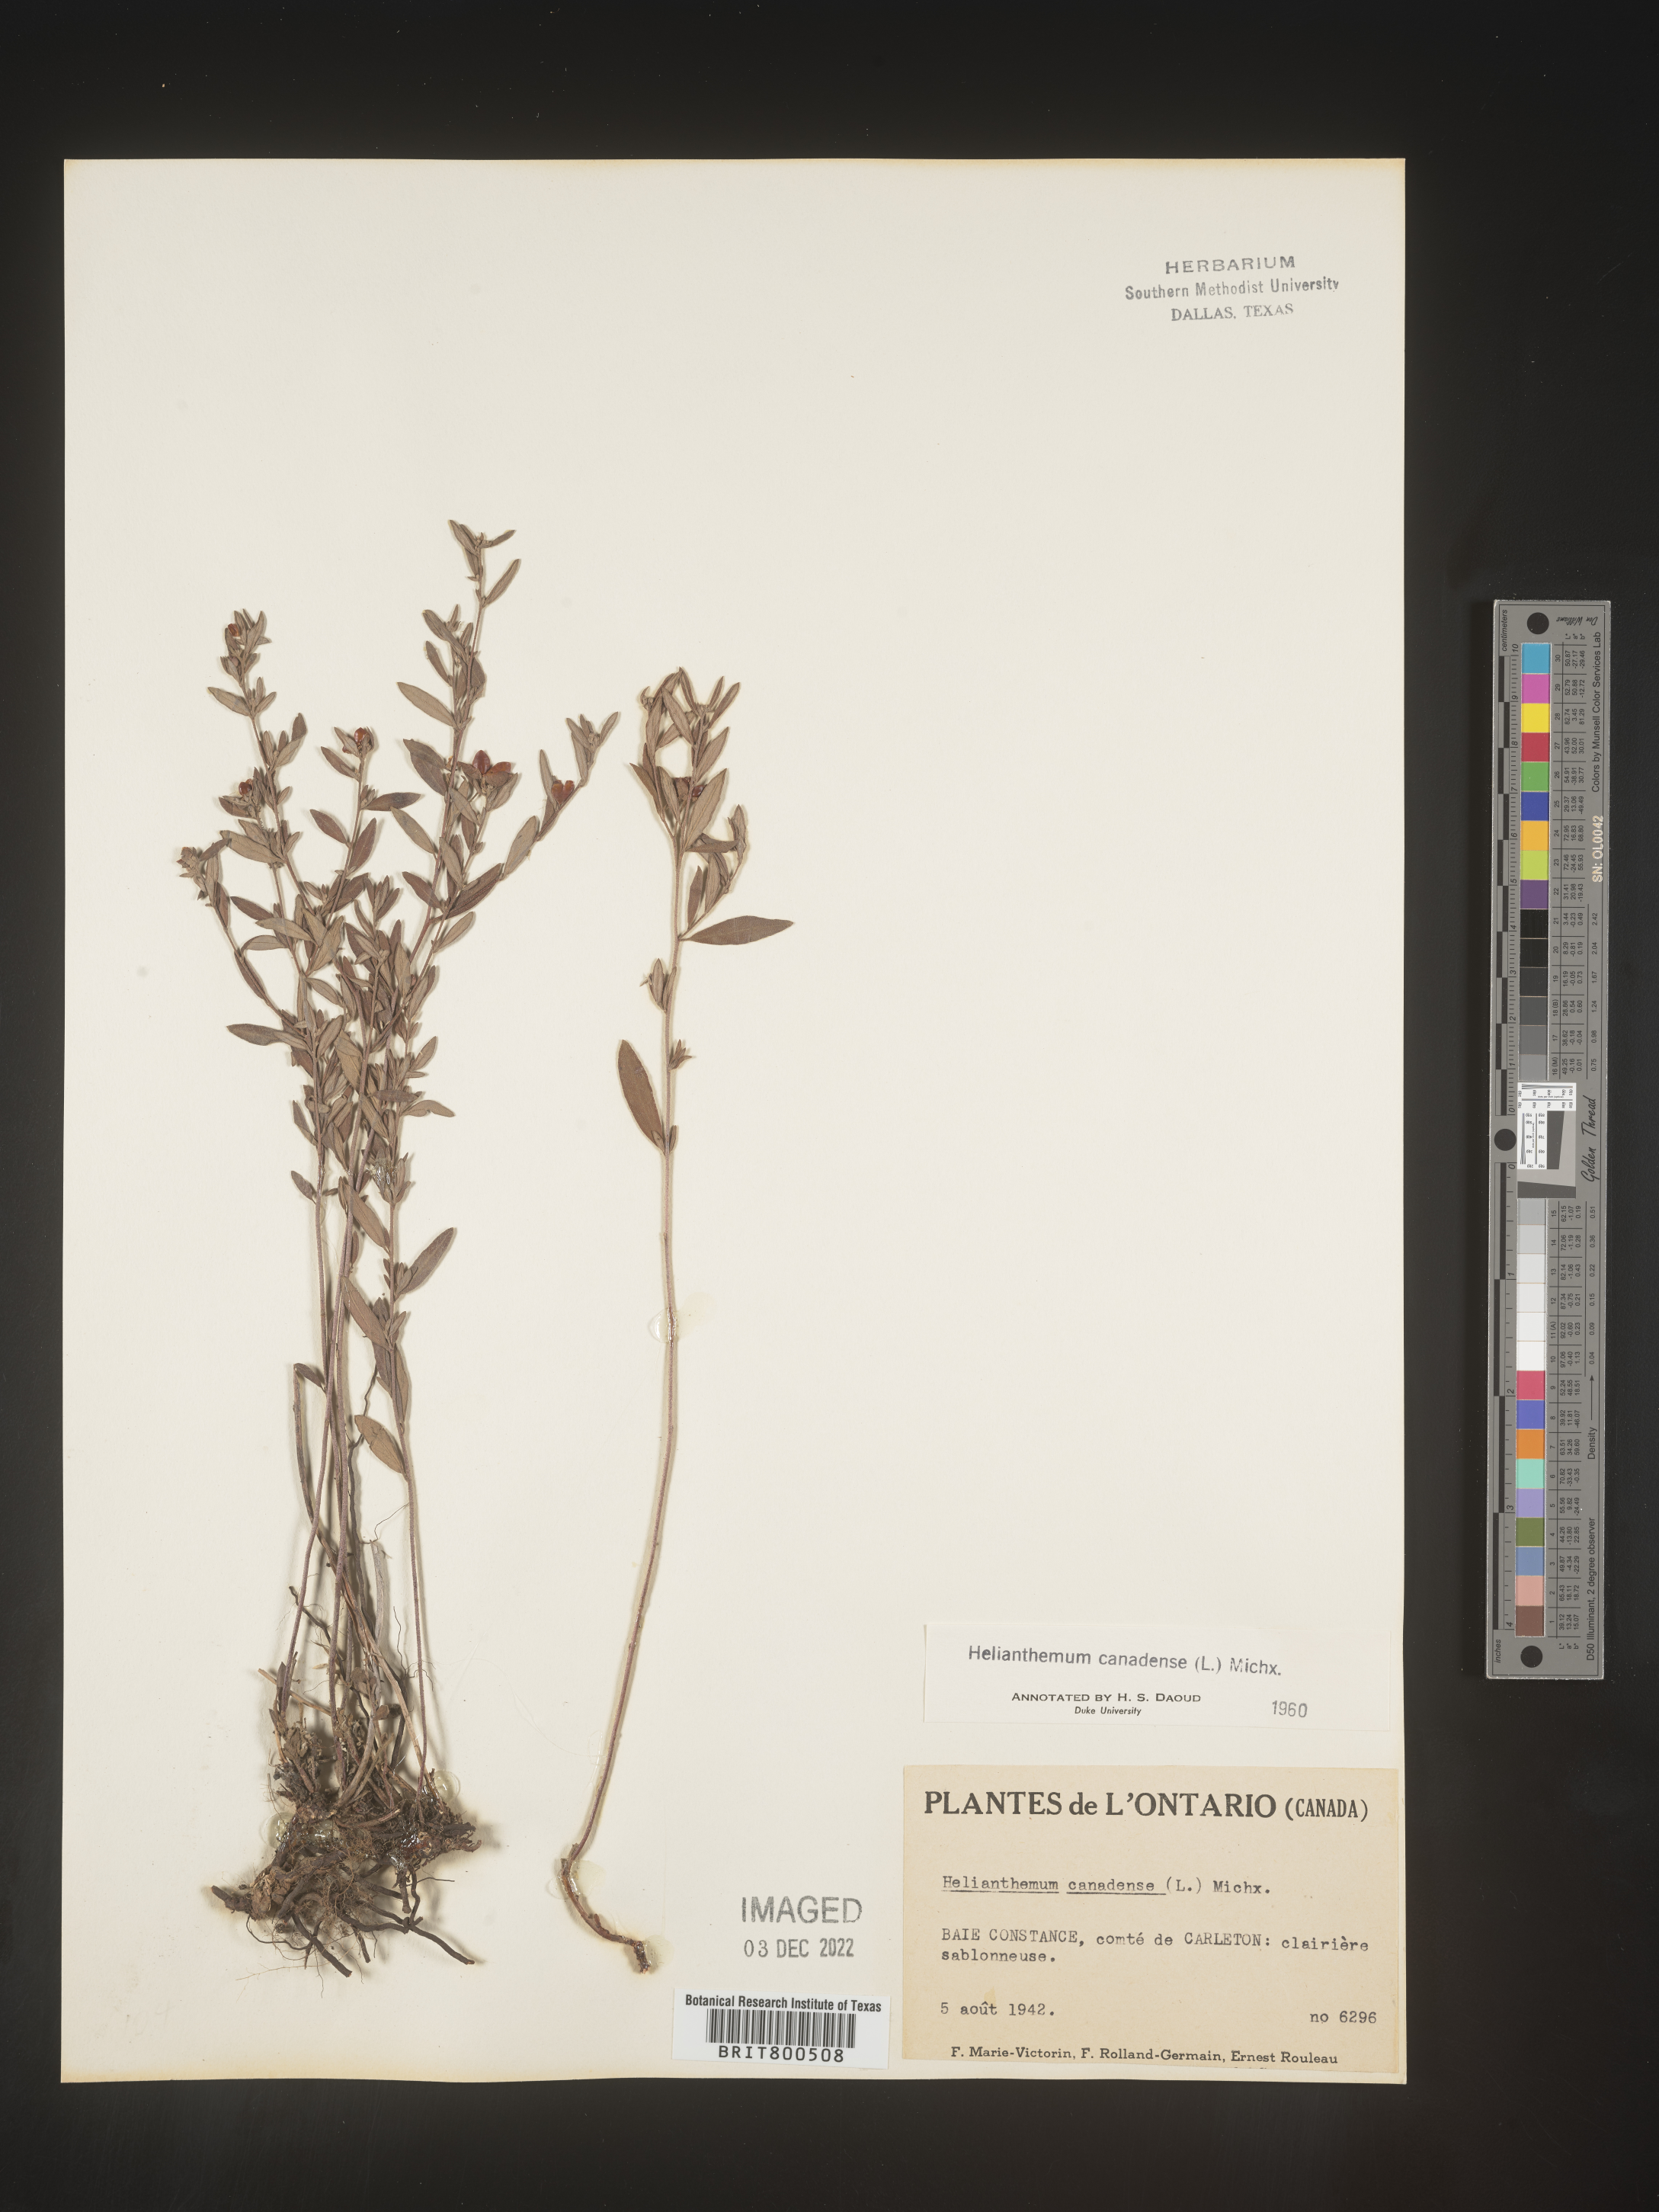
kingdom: Plantae
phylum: Tracheophyta
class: Magnoliopsida
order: Malvales
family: Cistaceae
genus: Crocanthemum
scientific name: Crocanthemum canadense
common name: Canada frostweed
